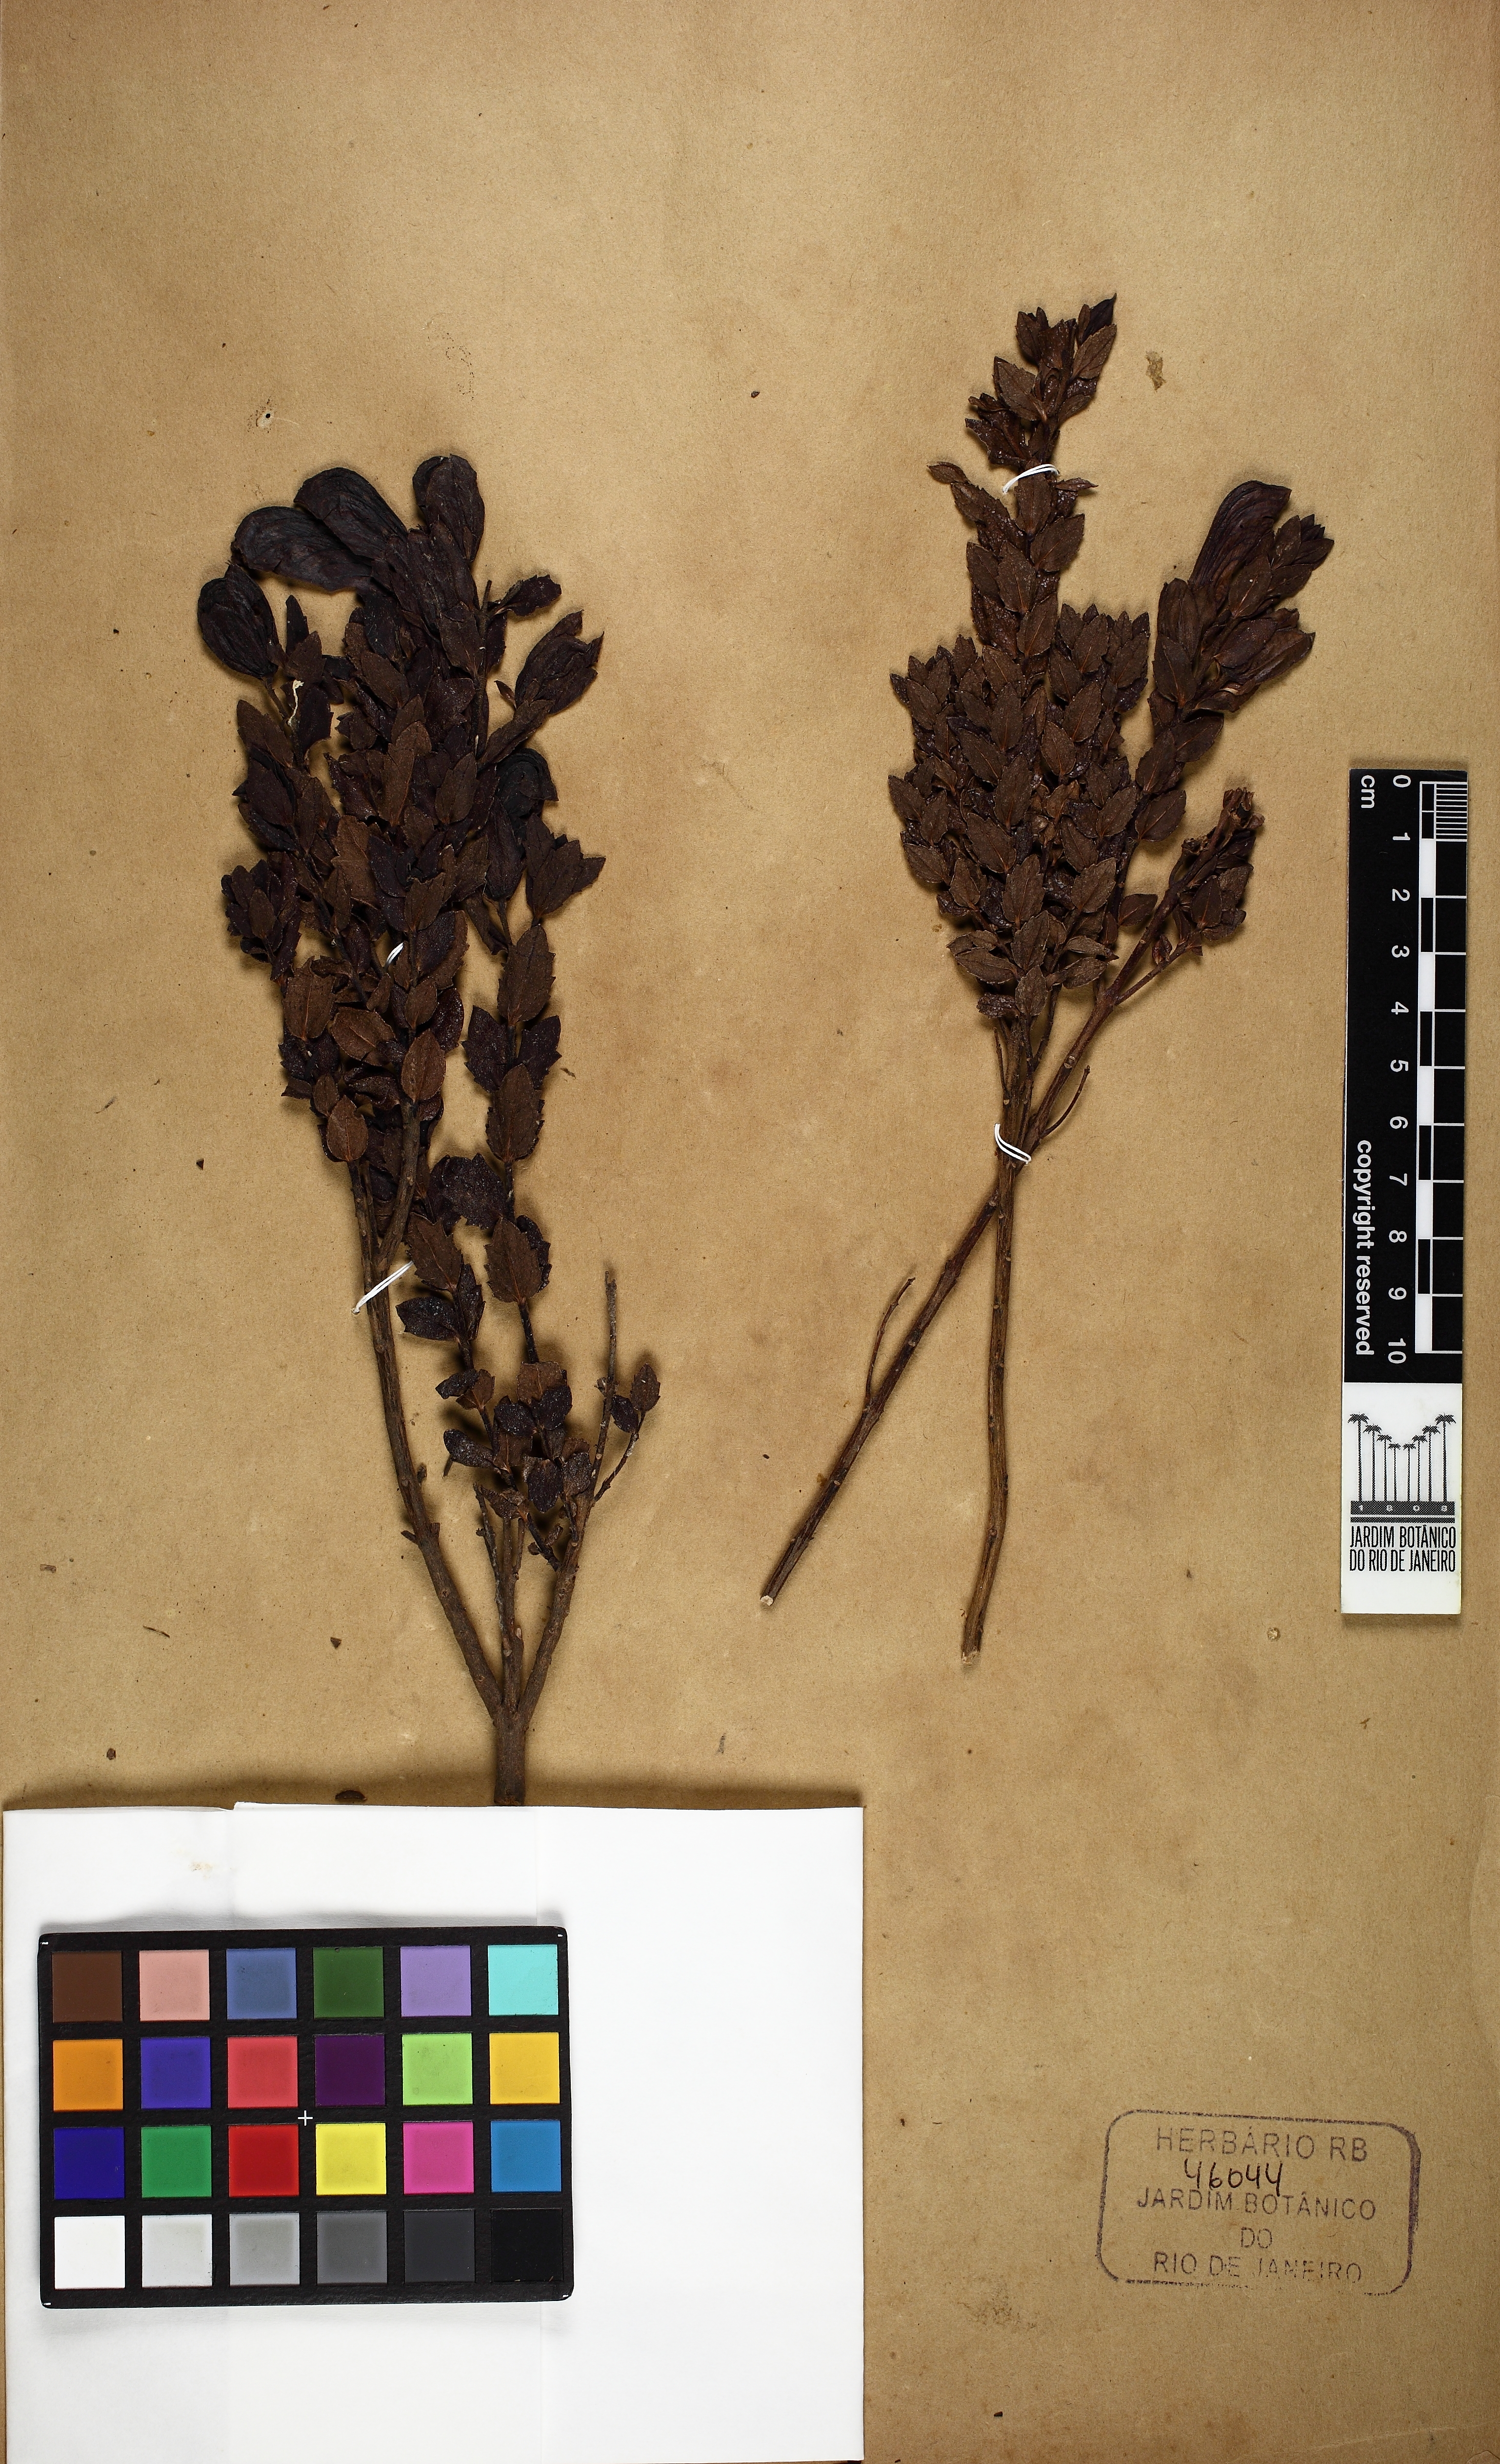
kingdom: Plantae
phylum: Tracheophyta
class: Magnoliopsida
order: Lamiales
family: Orobanchaceae
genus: Nothochilus
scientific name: Nothochilus coccineus
